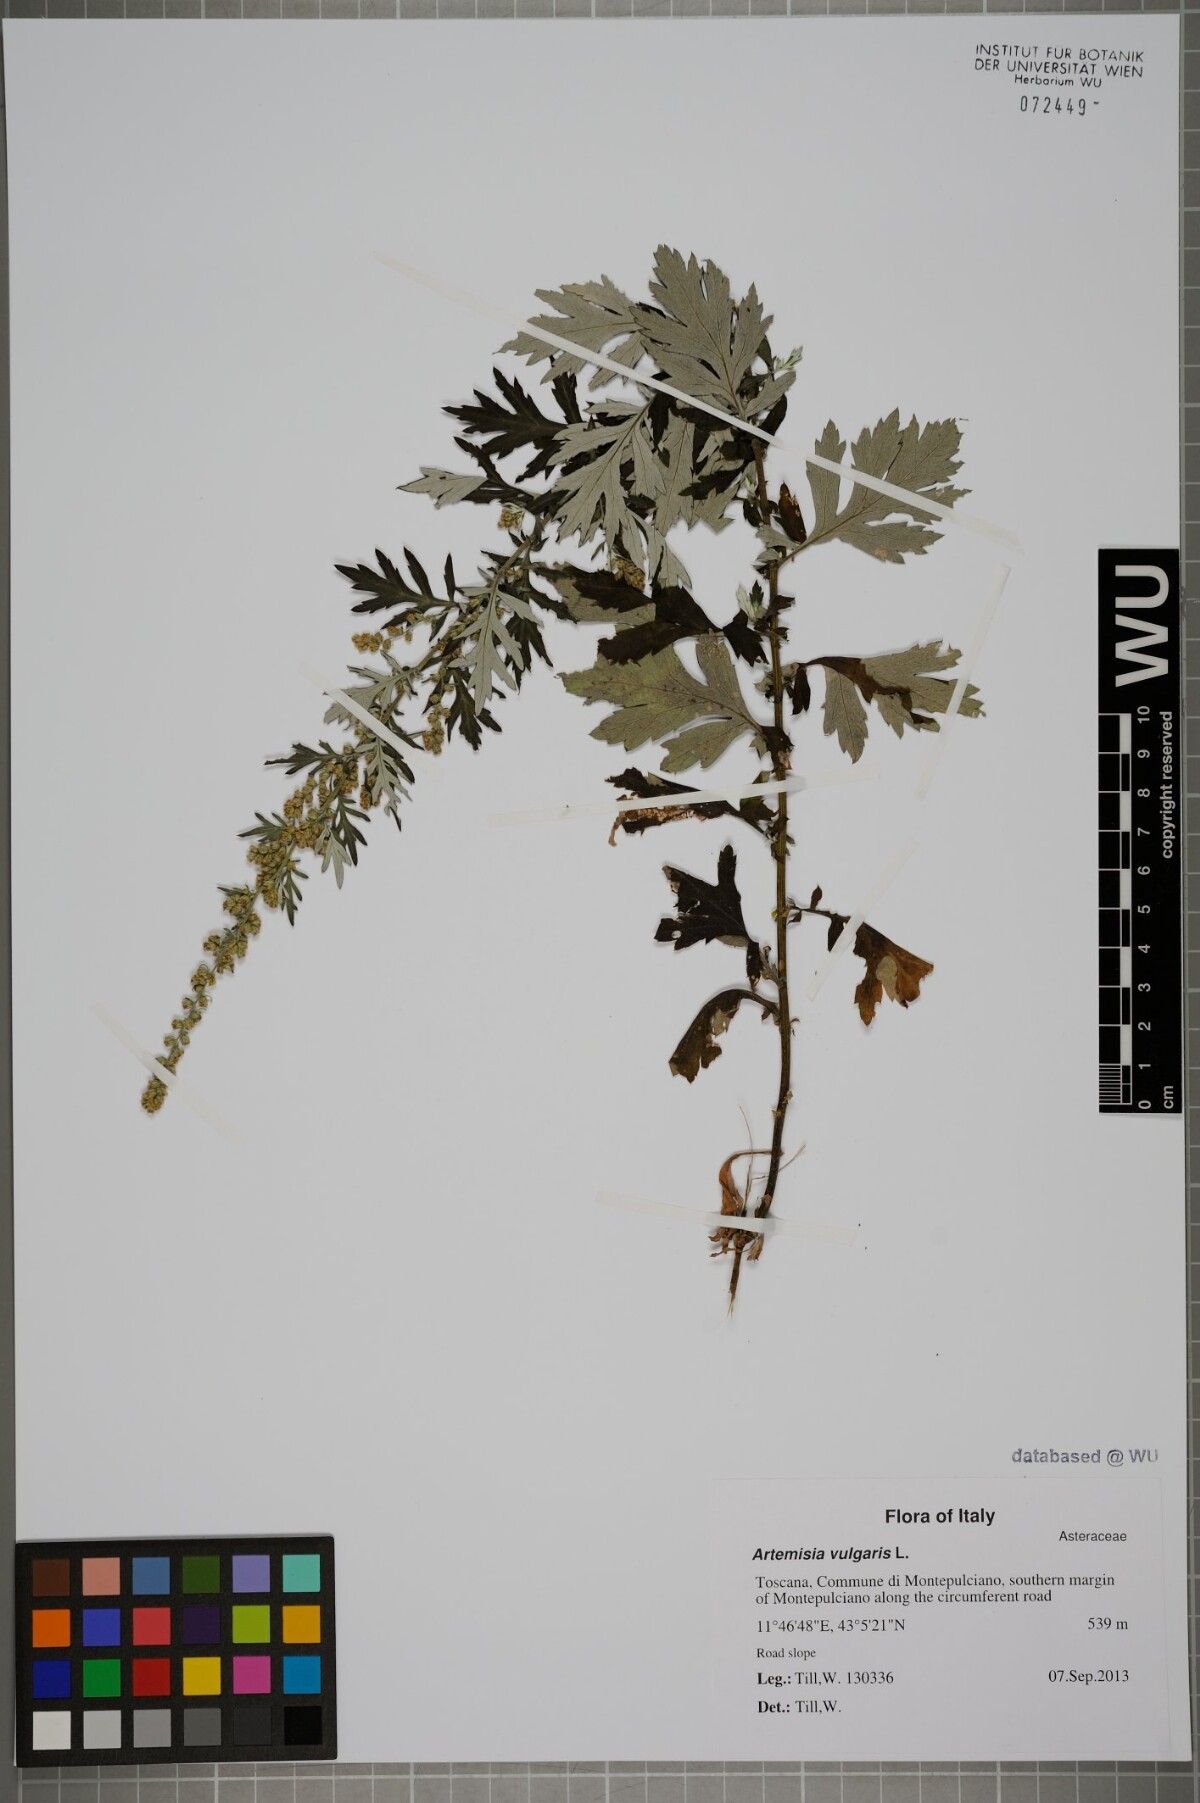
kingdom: Plantae
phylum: Tracheophyta
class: Magnoliopsida
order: Asterales
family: Asteraceae
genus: Artemisia
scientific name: Artemisia vulgaris
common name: Mugwort
